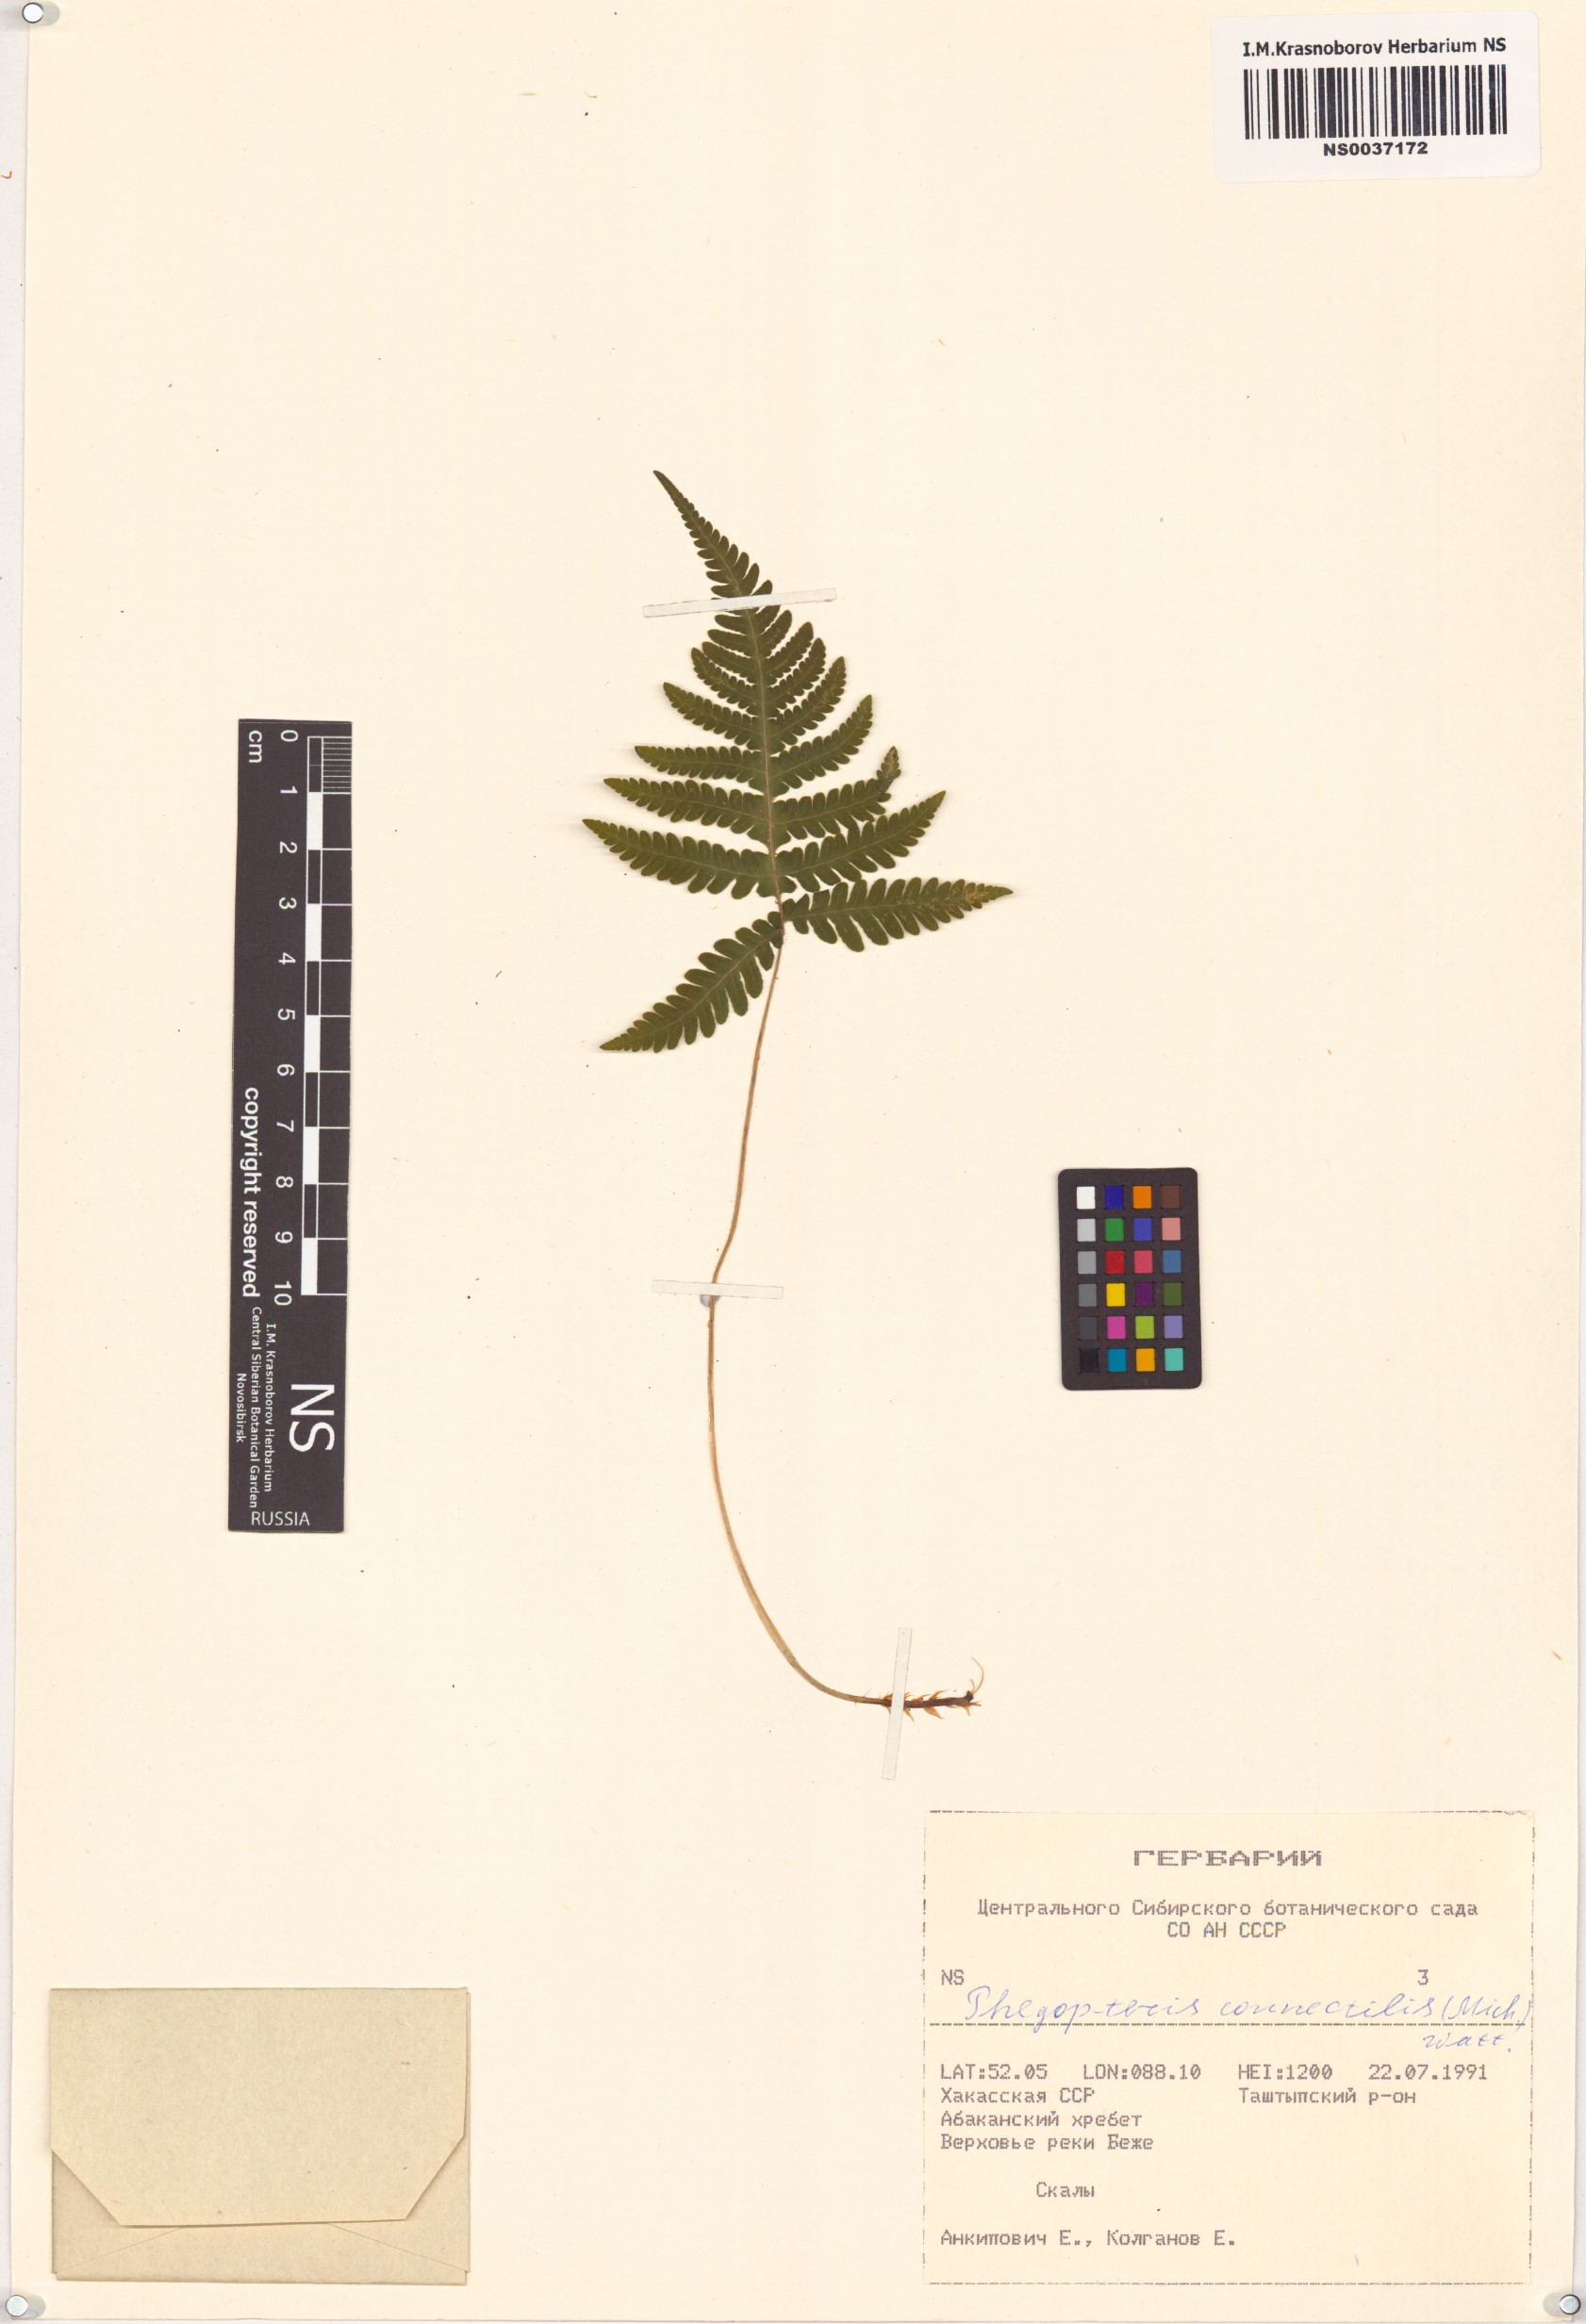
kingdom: Plantae
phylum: Tracheophyta
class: Polypodiopsida
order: Polypodiales
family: Thelypteridaceae
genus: Phegopteris
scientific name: Phegopteris connectilis
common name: Beech fern
